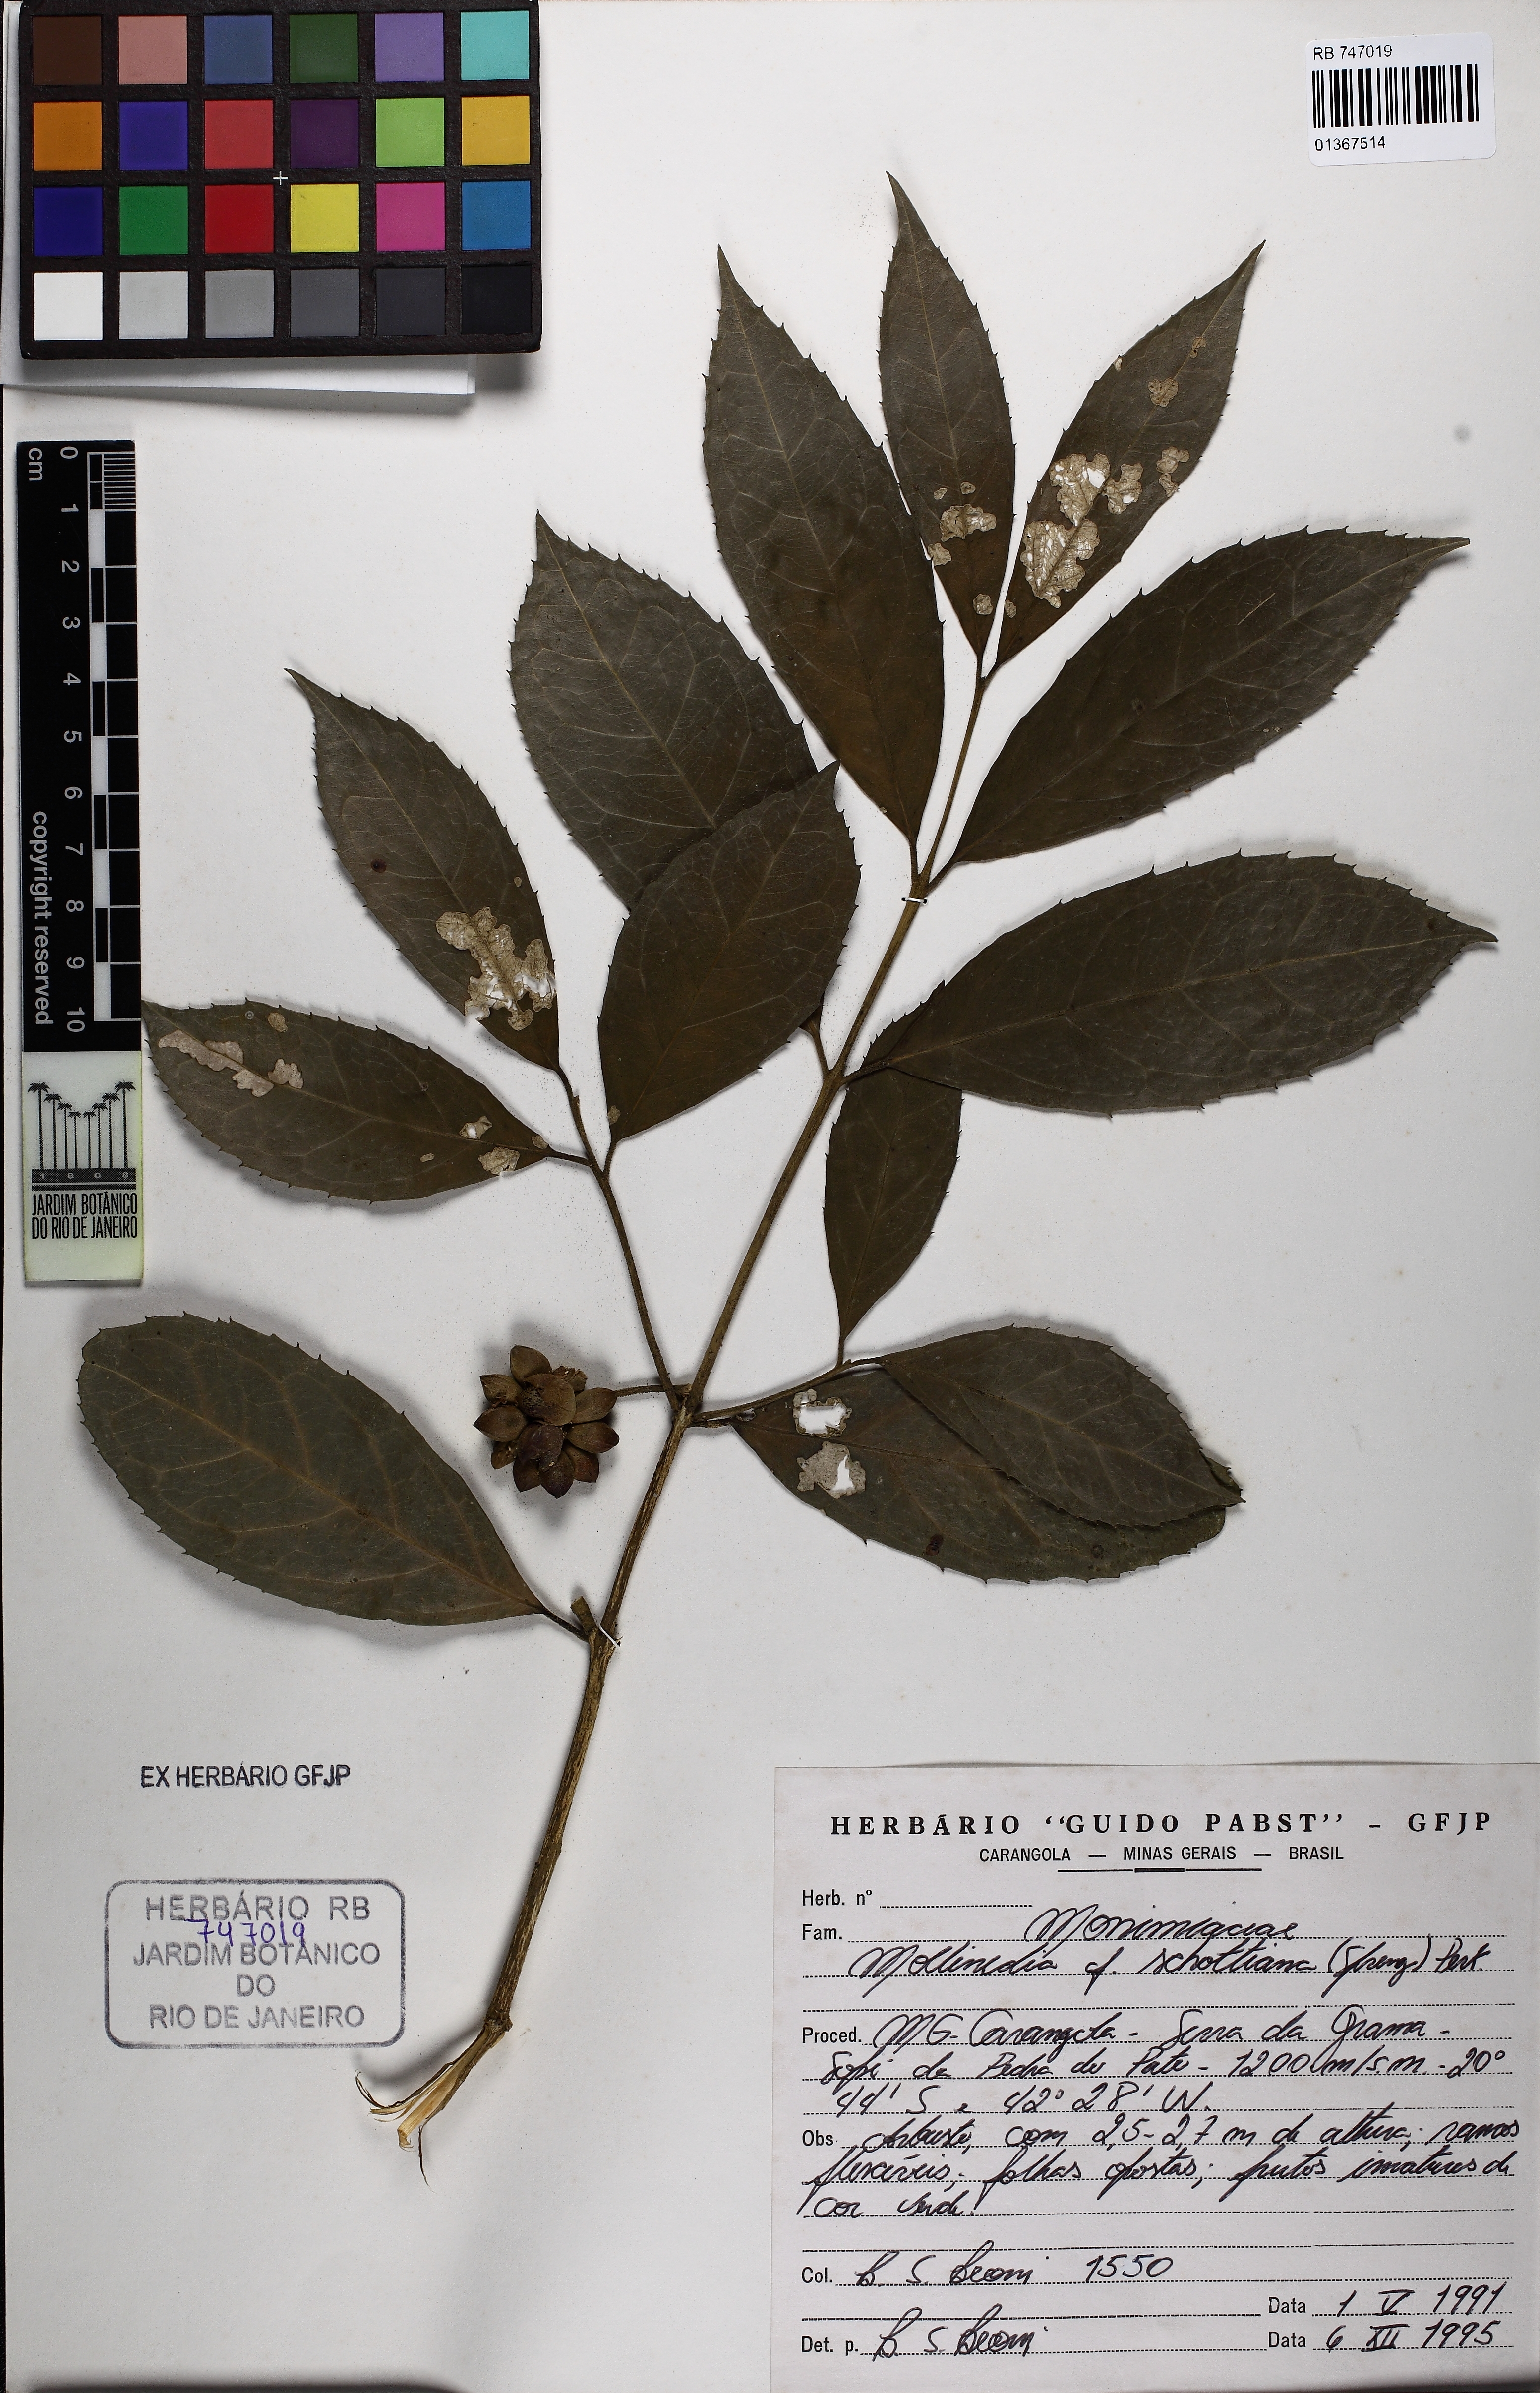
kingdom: Plantae
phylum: Tracheophyta
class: Magnoliopsida
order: Laurales
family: Monimiaceae
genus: Mollinedia
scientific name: Mollinedia umbellata
